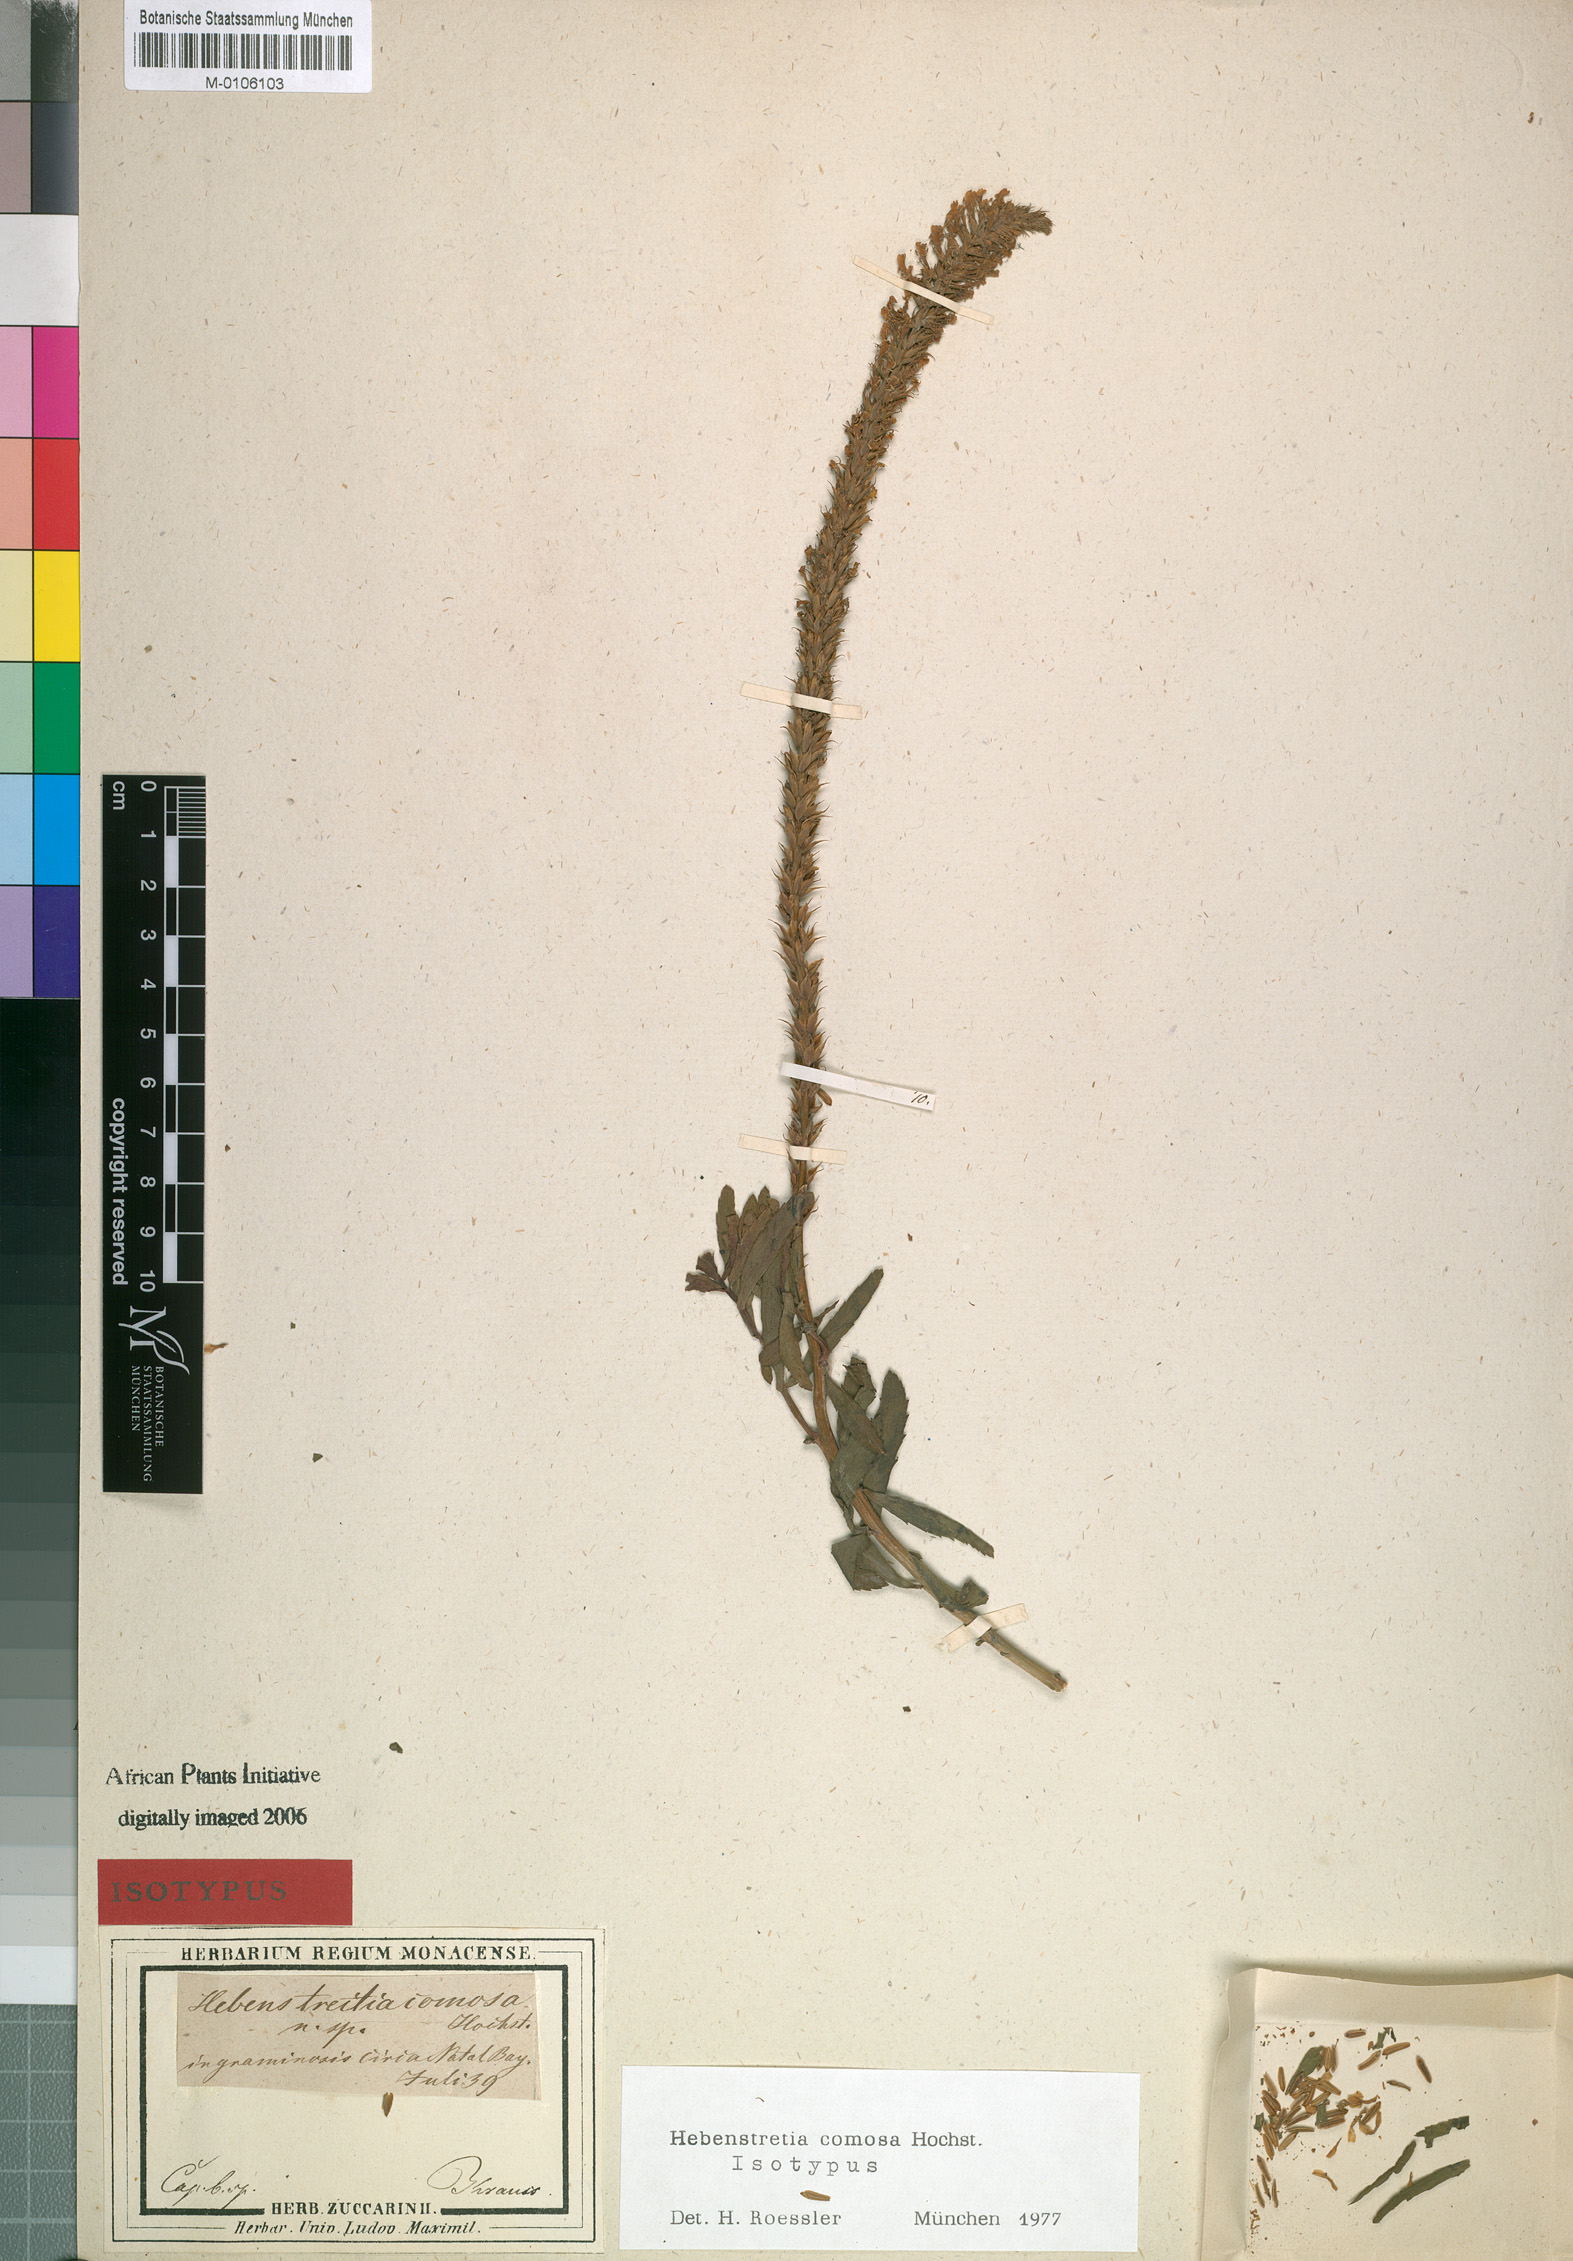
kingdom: Plantae
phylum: Tracheophyta
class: Magnoliopsida
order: Lamiales
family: Scrophulariaceae
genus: Hebenstretia
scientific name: Hebenstretia comosa
